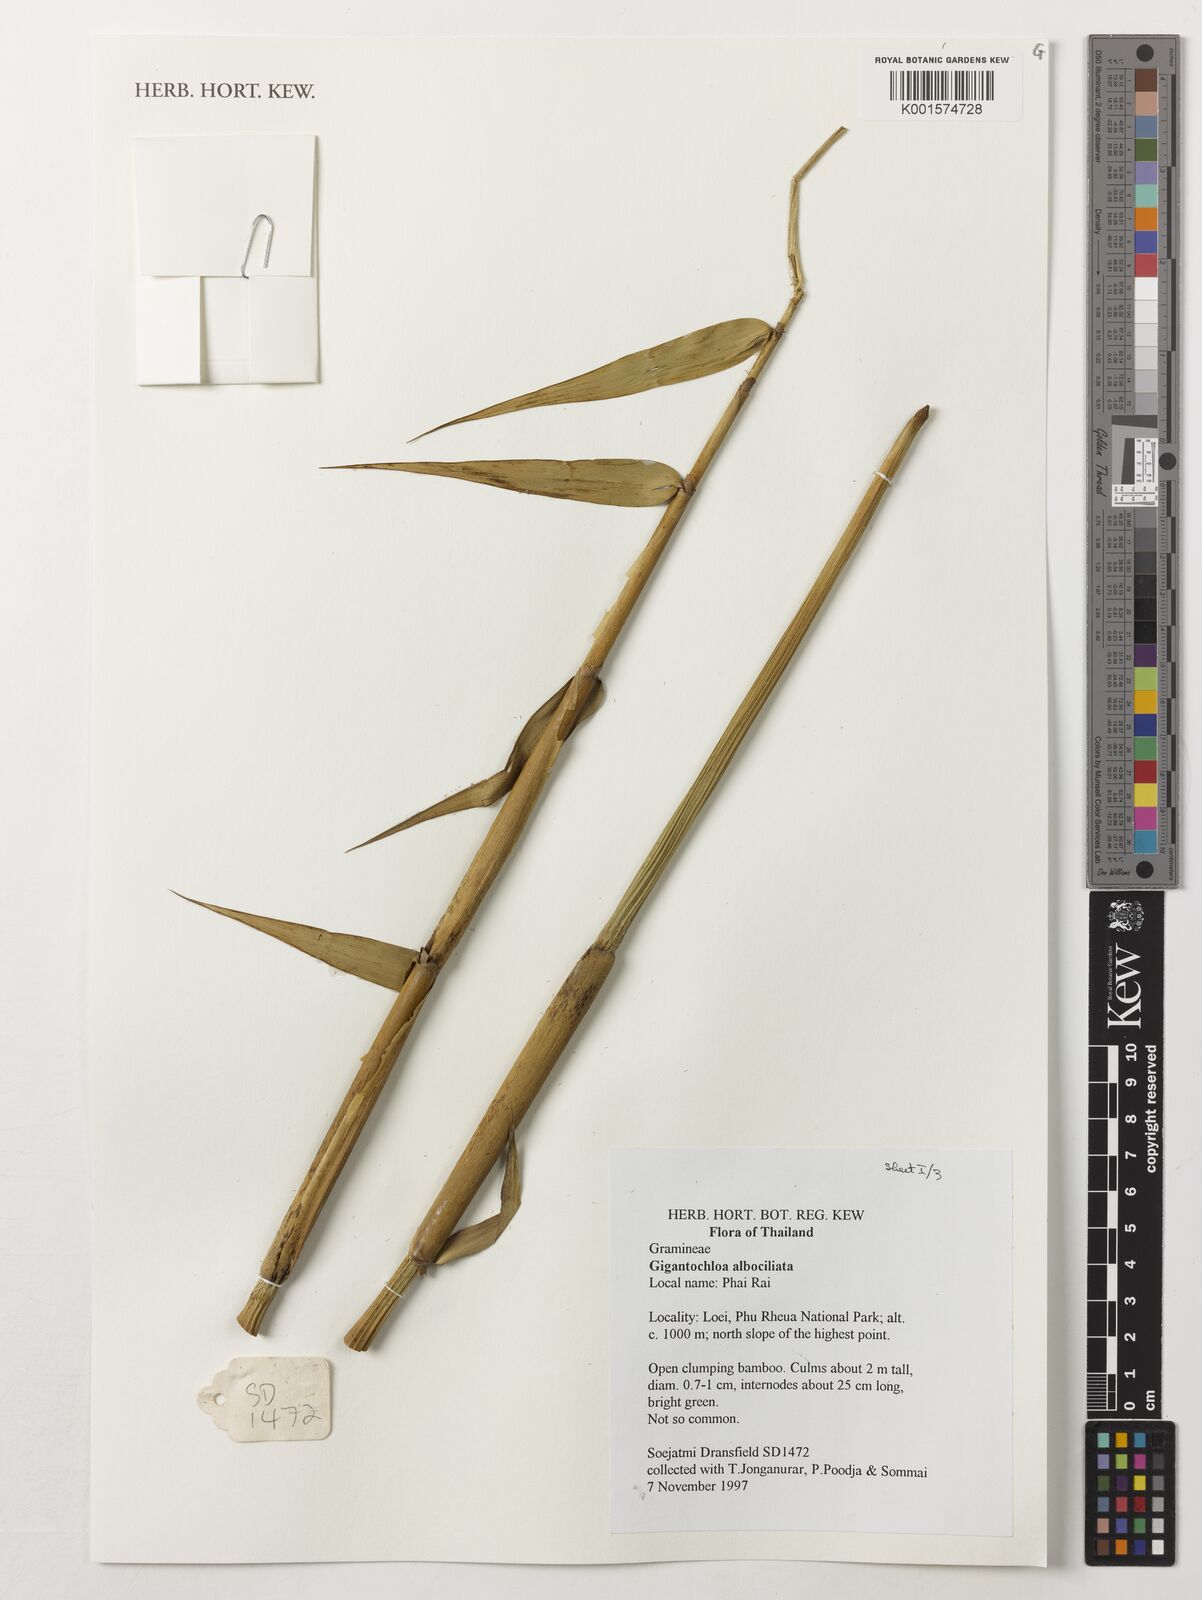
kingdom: Plantae
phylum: Tracheophyta
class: Liliopsida
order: Poales
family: Poaceae
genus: Gigantochloa
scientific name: Gigantochloa albociliata
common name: White-fringe gigantochloa
